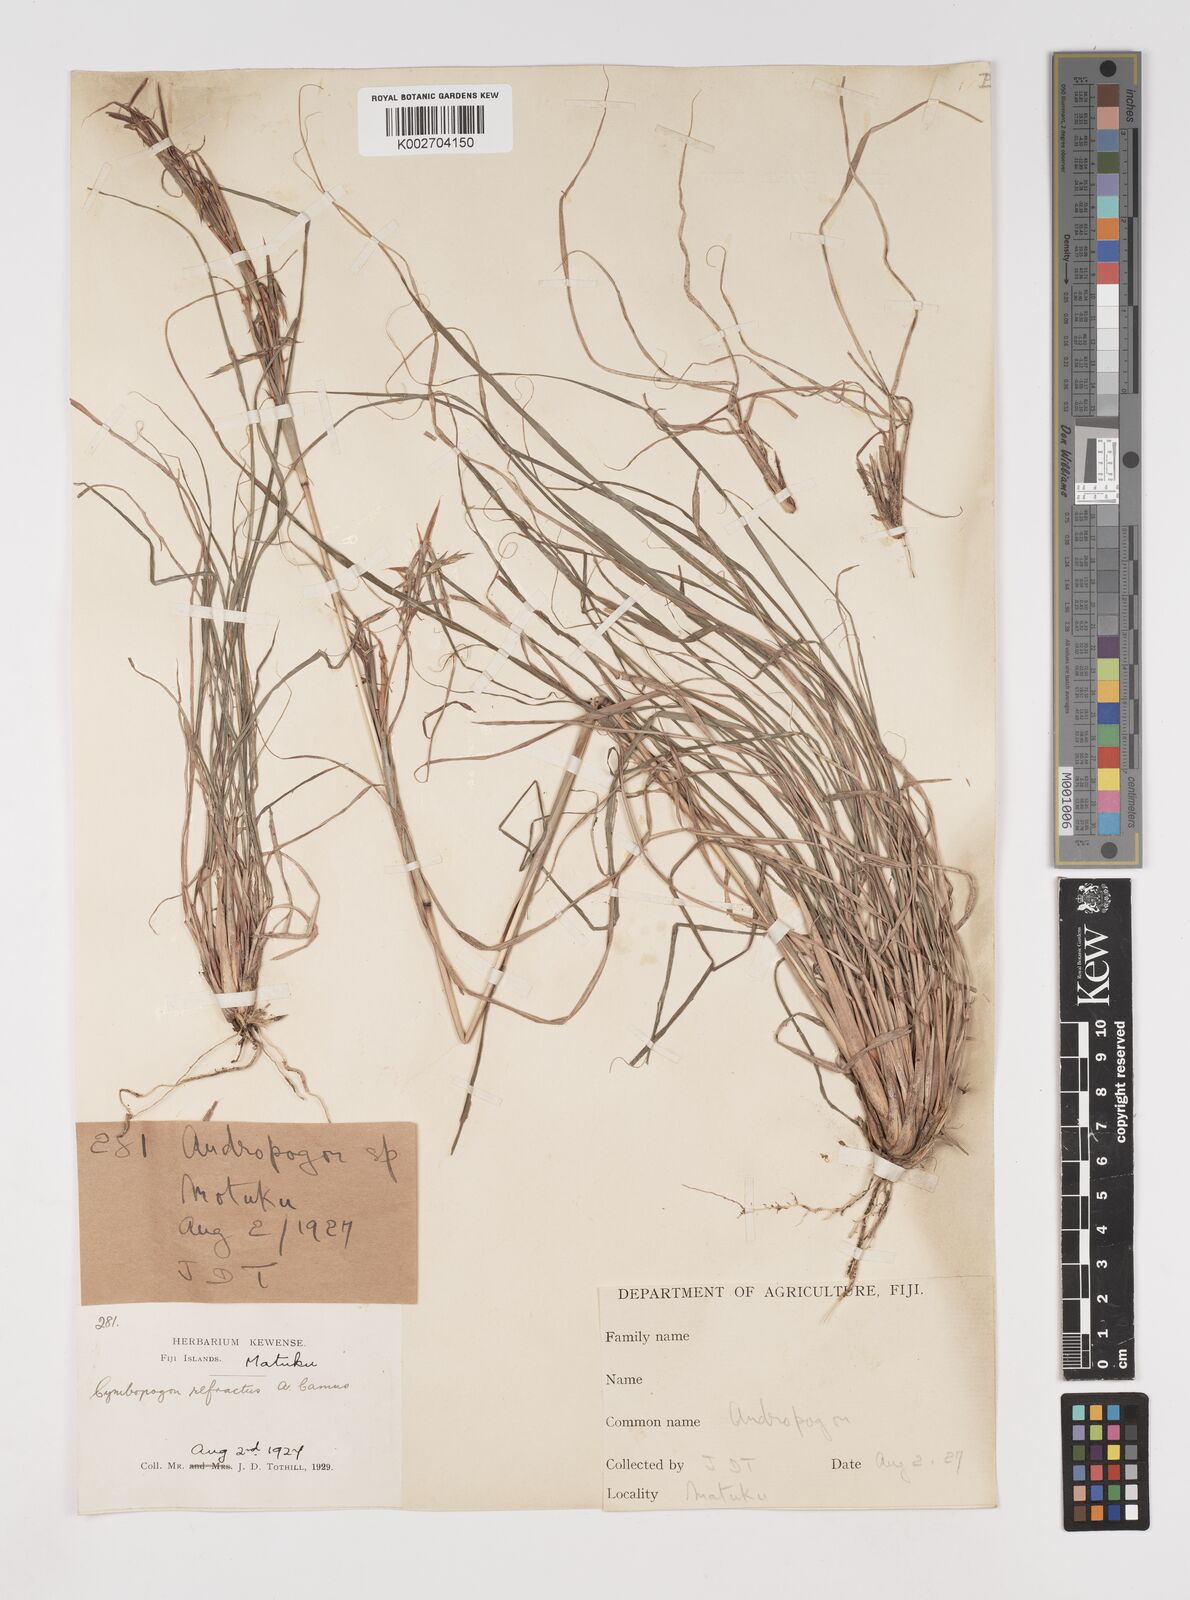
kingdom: Plantae
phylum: Tracheophyta
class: Liliopsida
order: Poales
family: Poaceae
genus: Cymbopogon
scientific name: Cymbopogon refractus
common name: Barbwire grass
